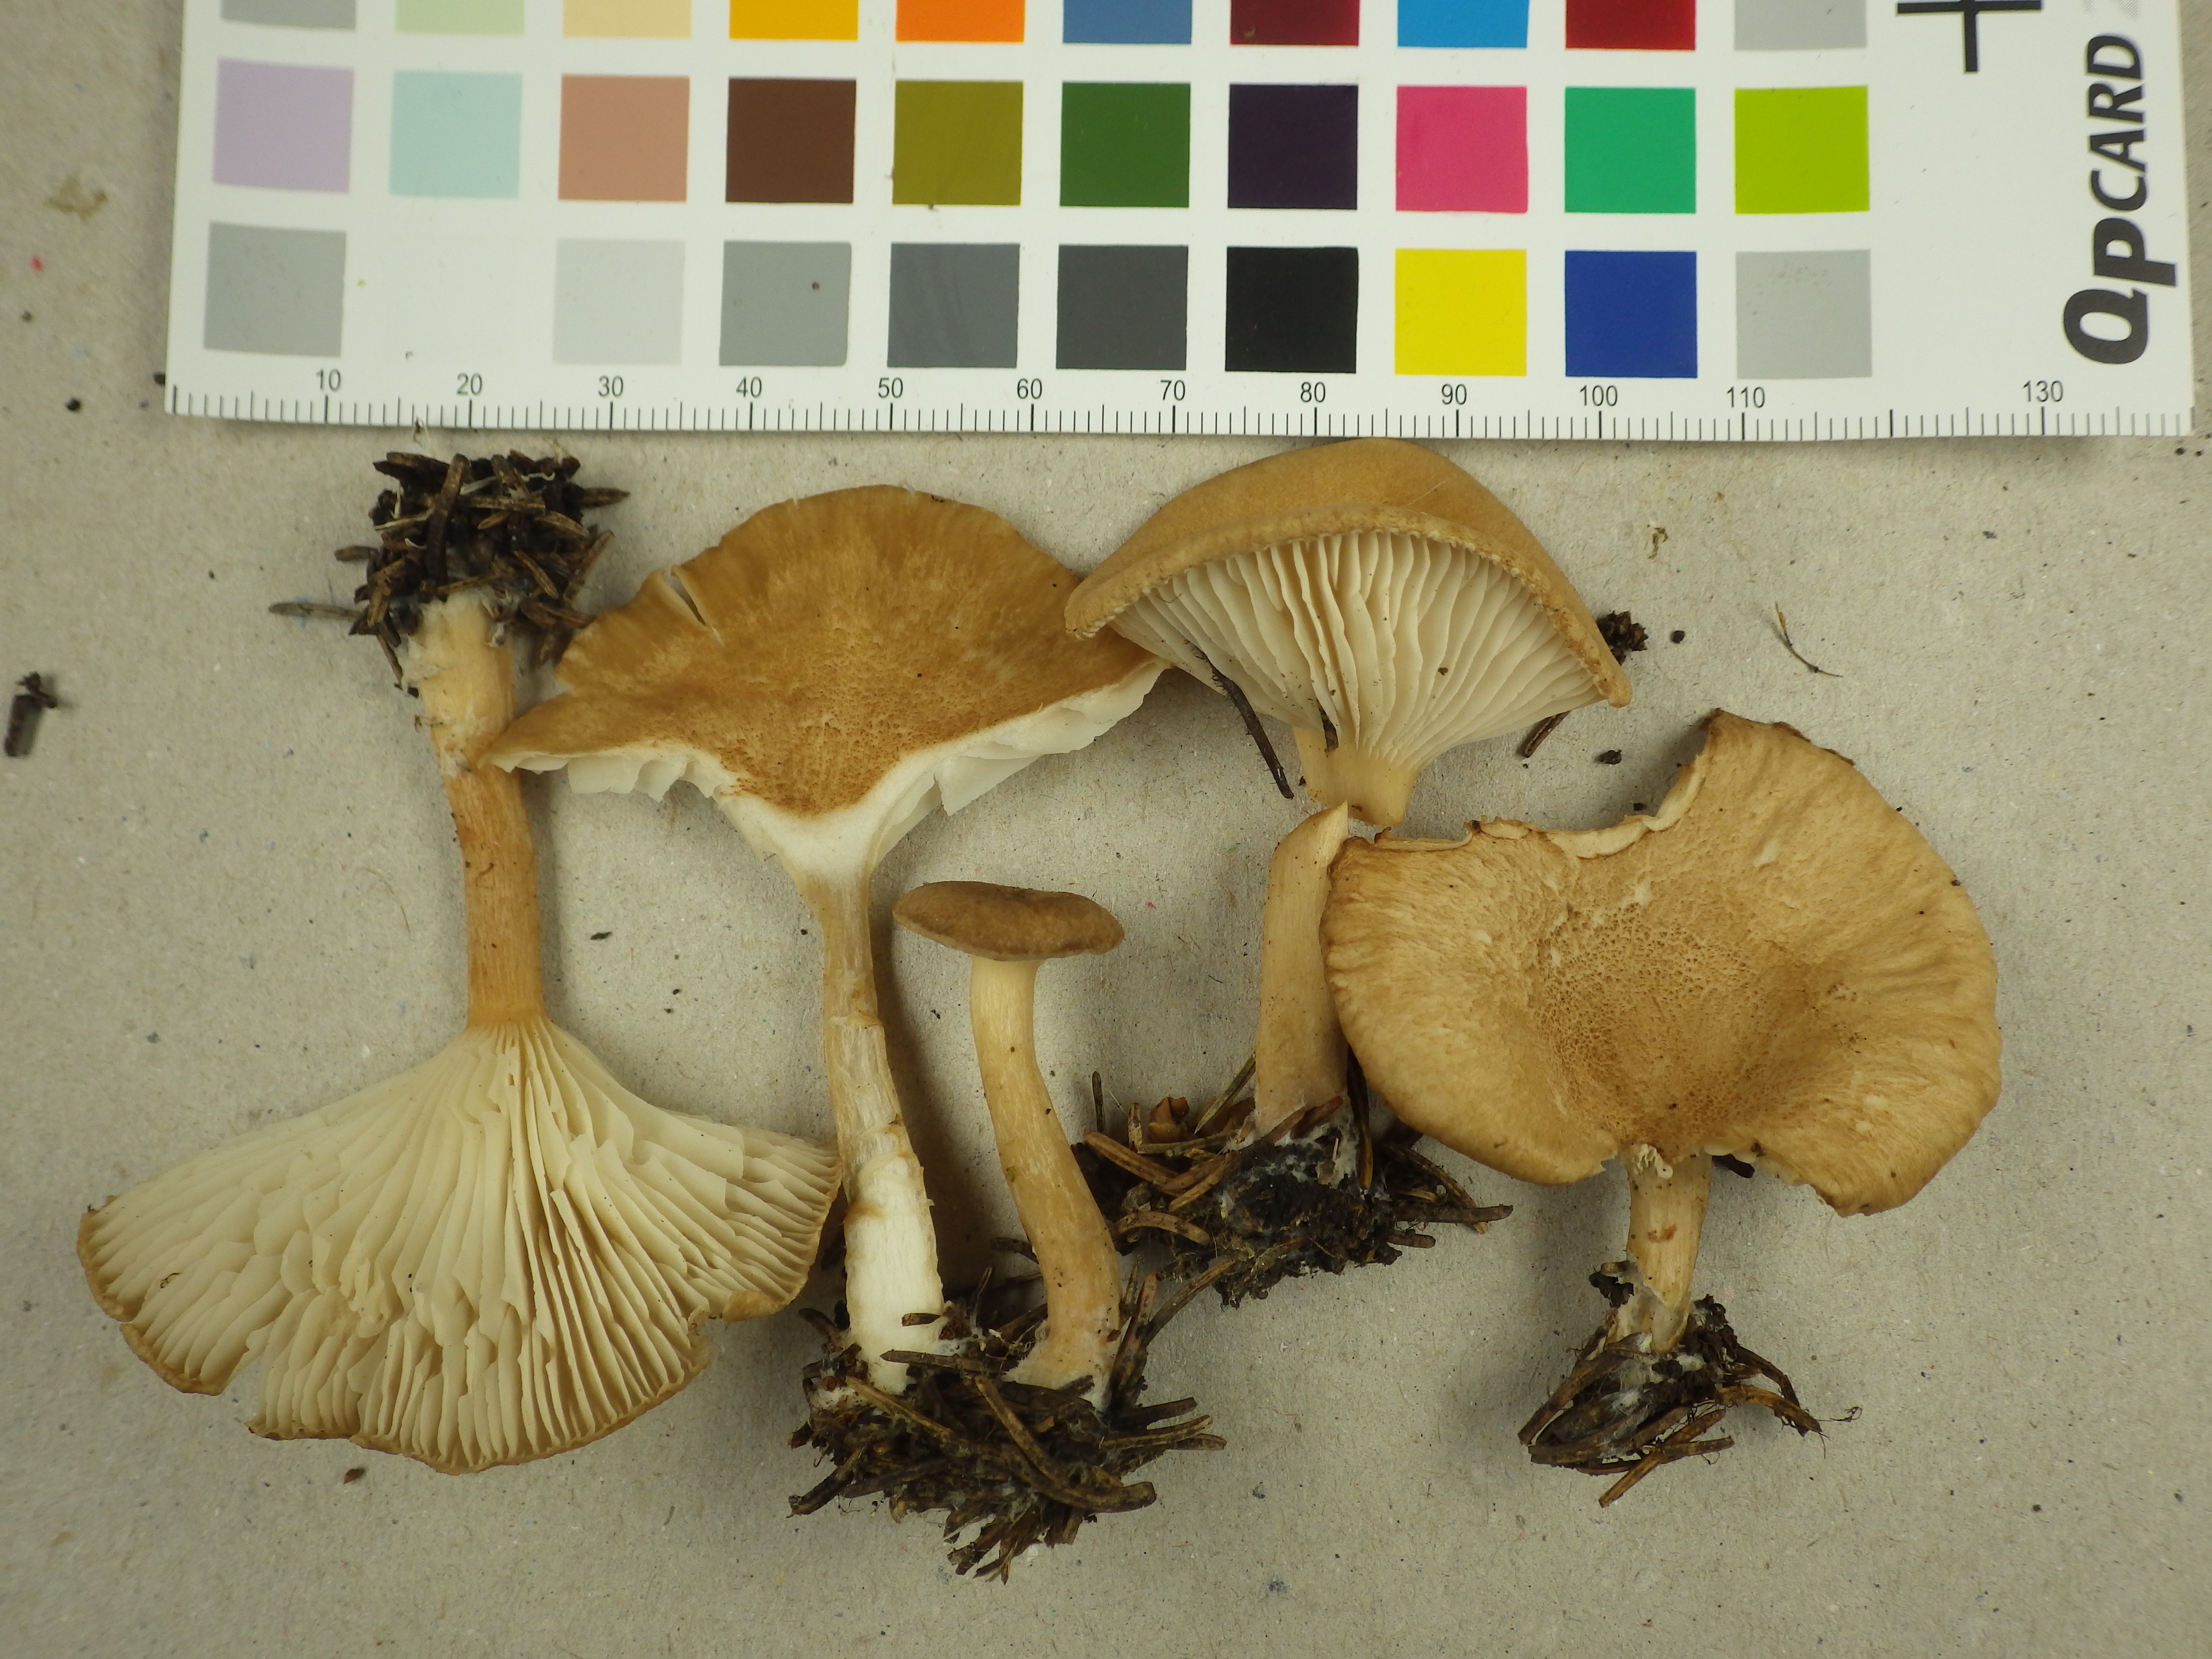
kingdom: Fungi
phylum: Basidiomycota
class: Agaricomycetes
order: Agaricales
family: Tricholomataceae
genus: Infundibulicybe
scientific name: Infundibulicybe squamulosa
